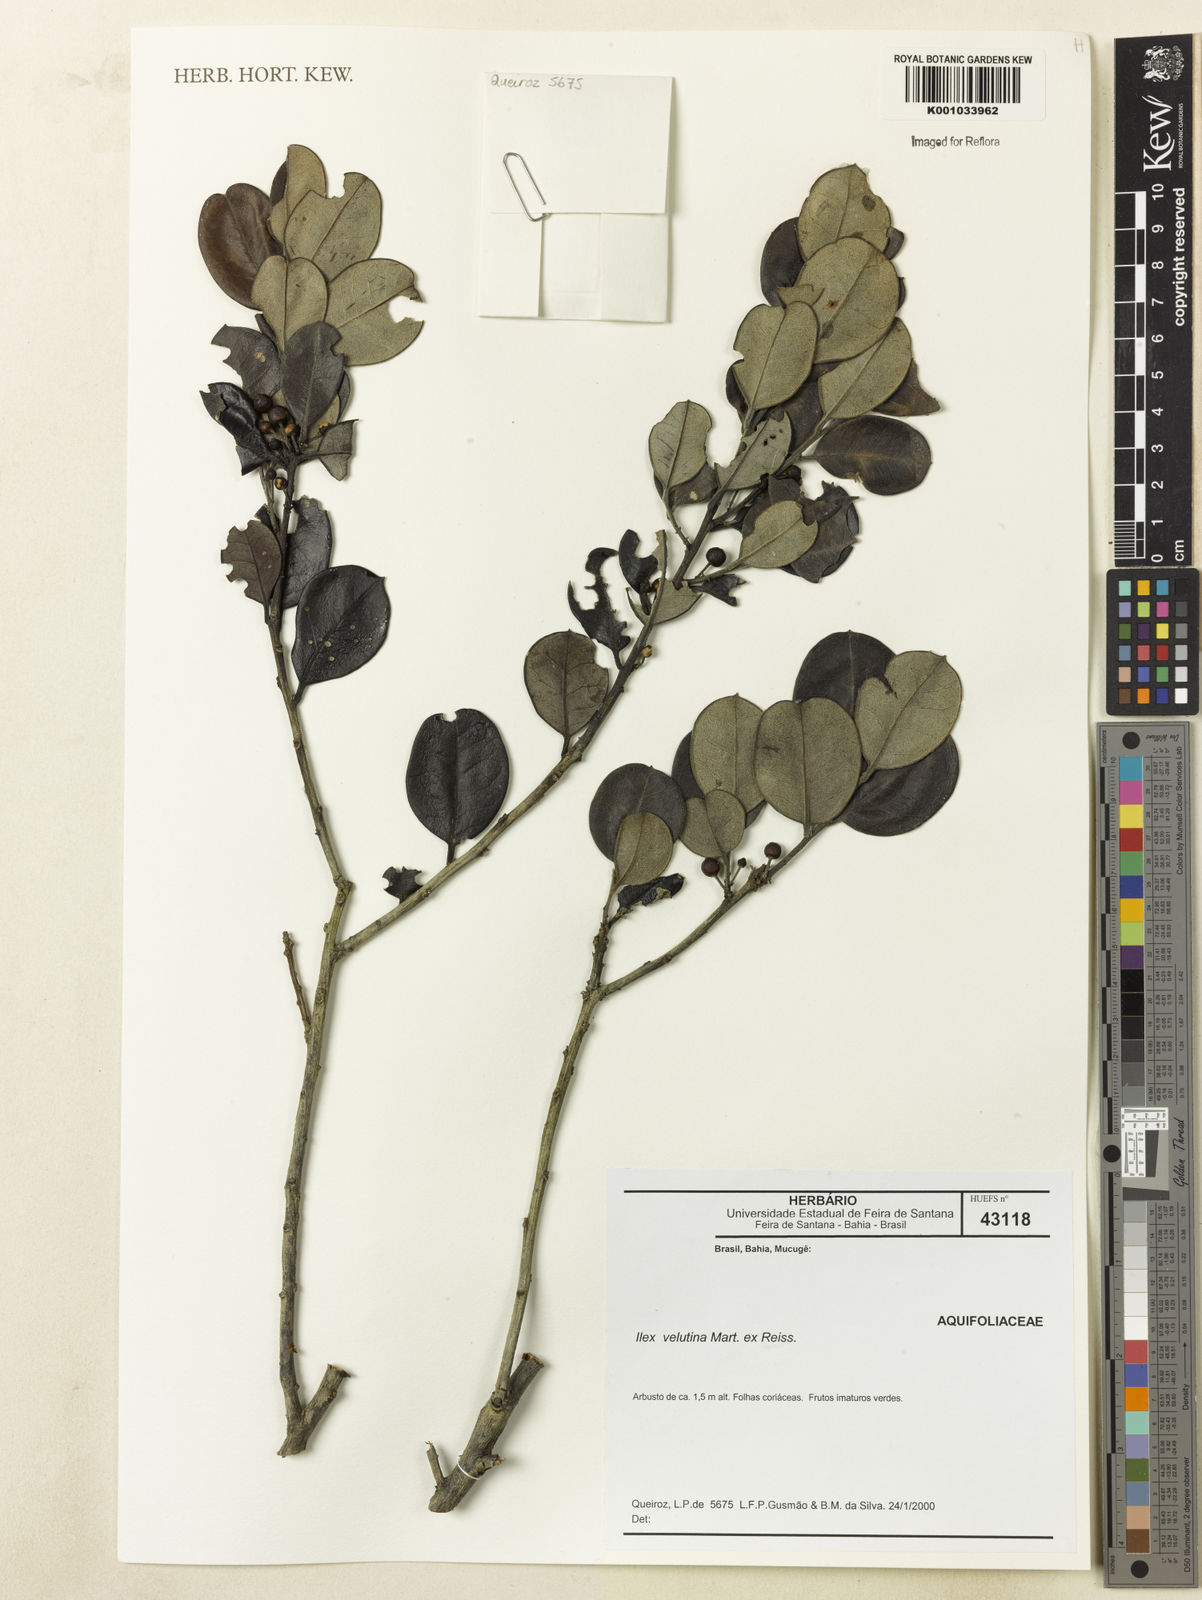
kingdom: Plantae
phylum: Tracheophyta
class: Magnoliopsida
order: Aquifoliales
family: Aquifoliaceae
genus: Ilex
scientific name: Ilex velutina
